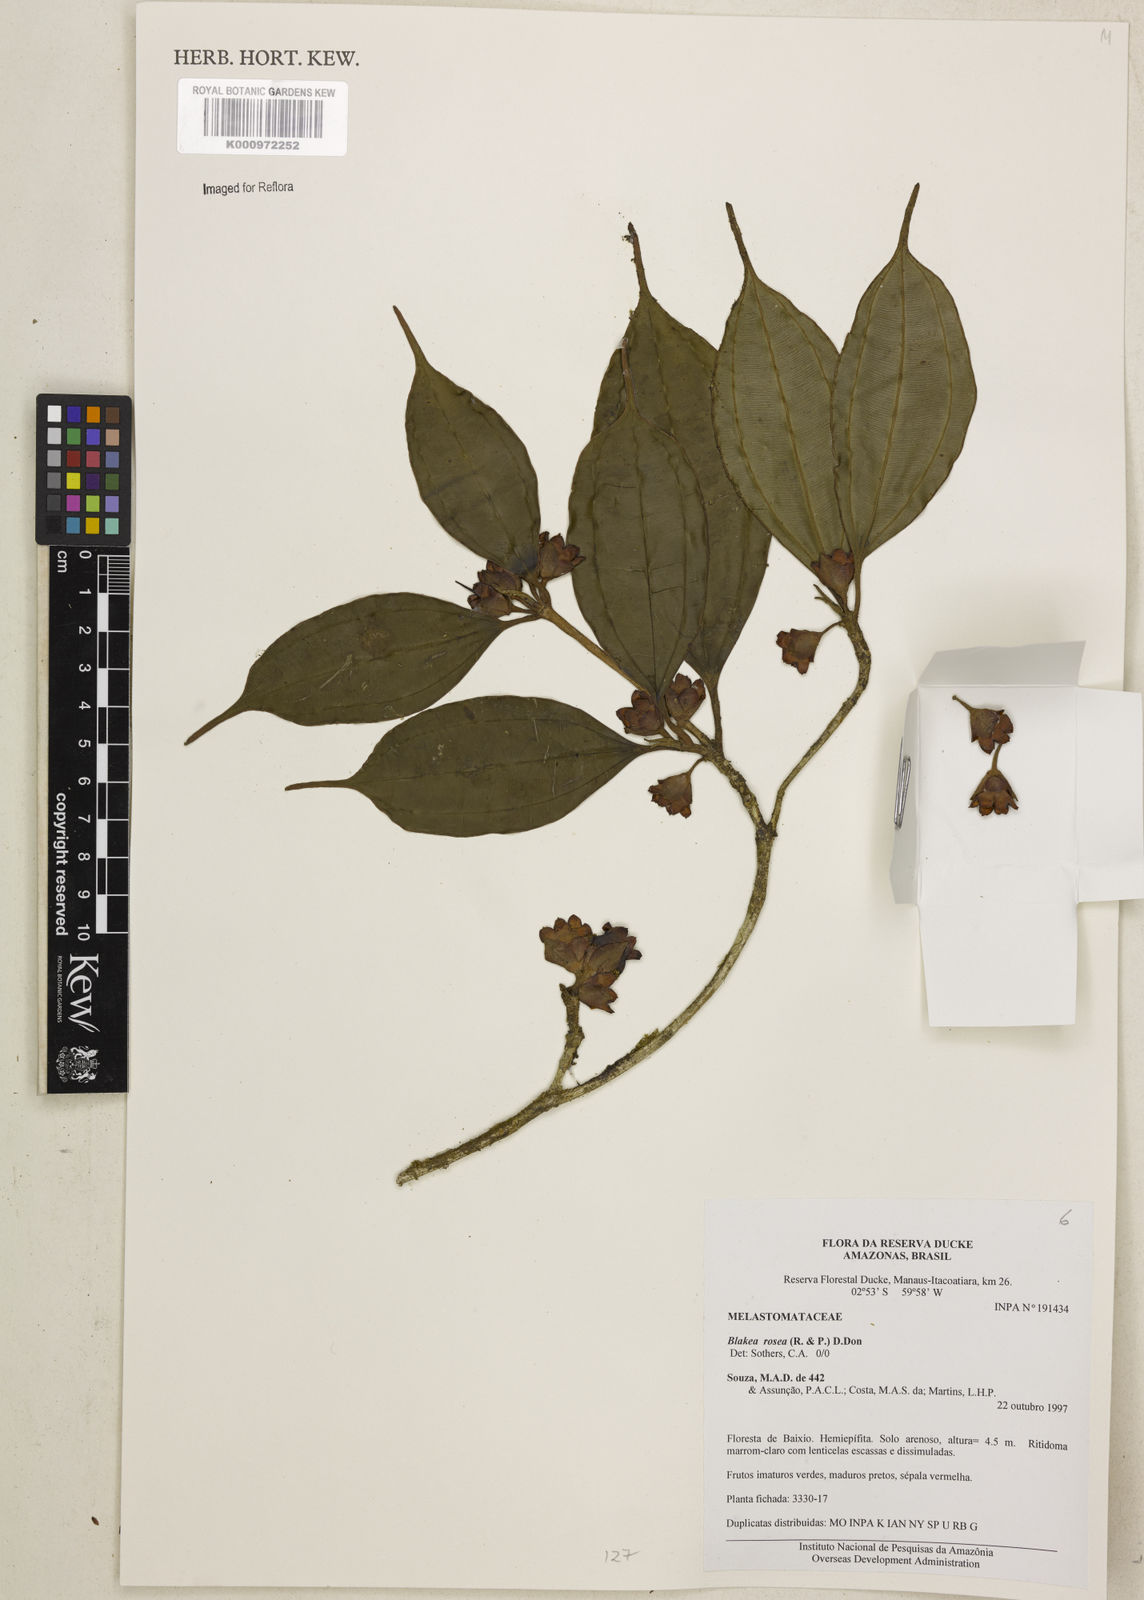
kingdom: Plantae
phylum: Tracheophyta
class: Magnoliopsida
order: Myrtales
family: Melastomataceae
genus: Blakea
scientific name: Blakea rosea
